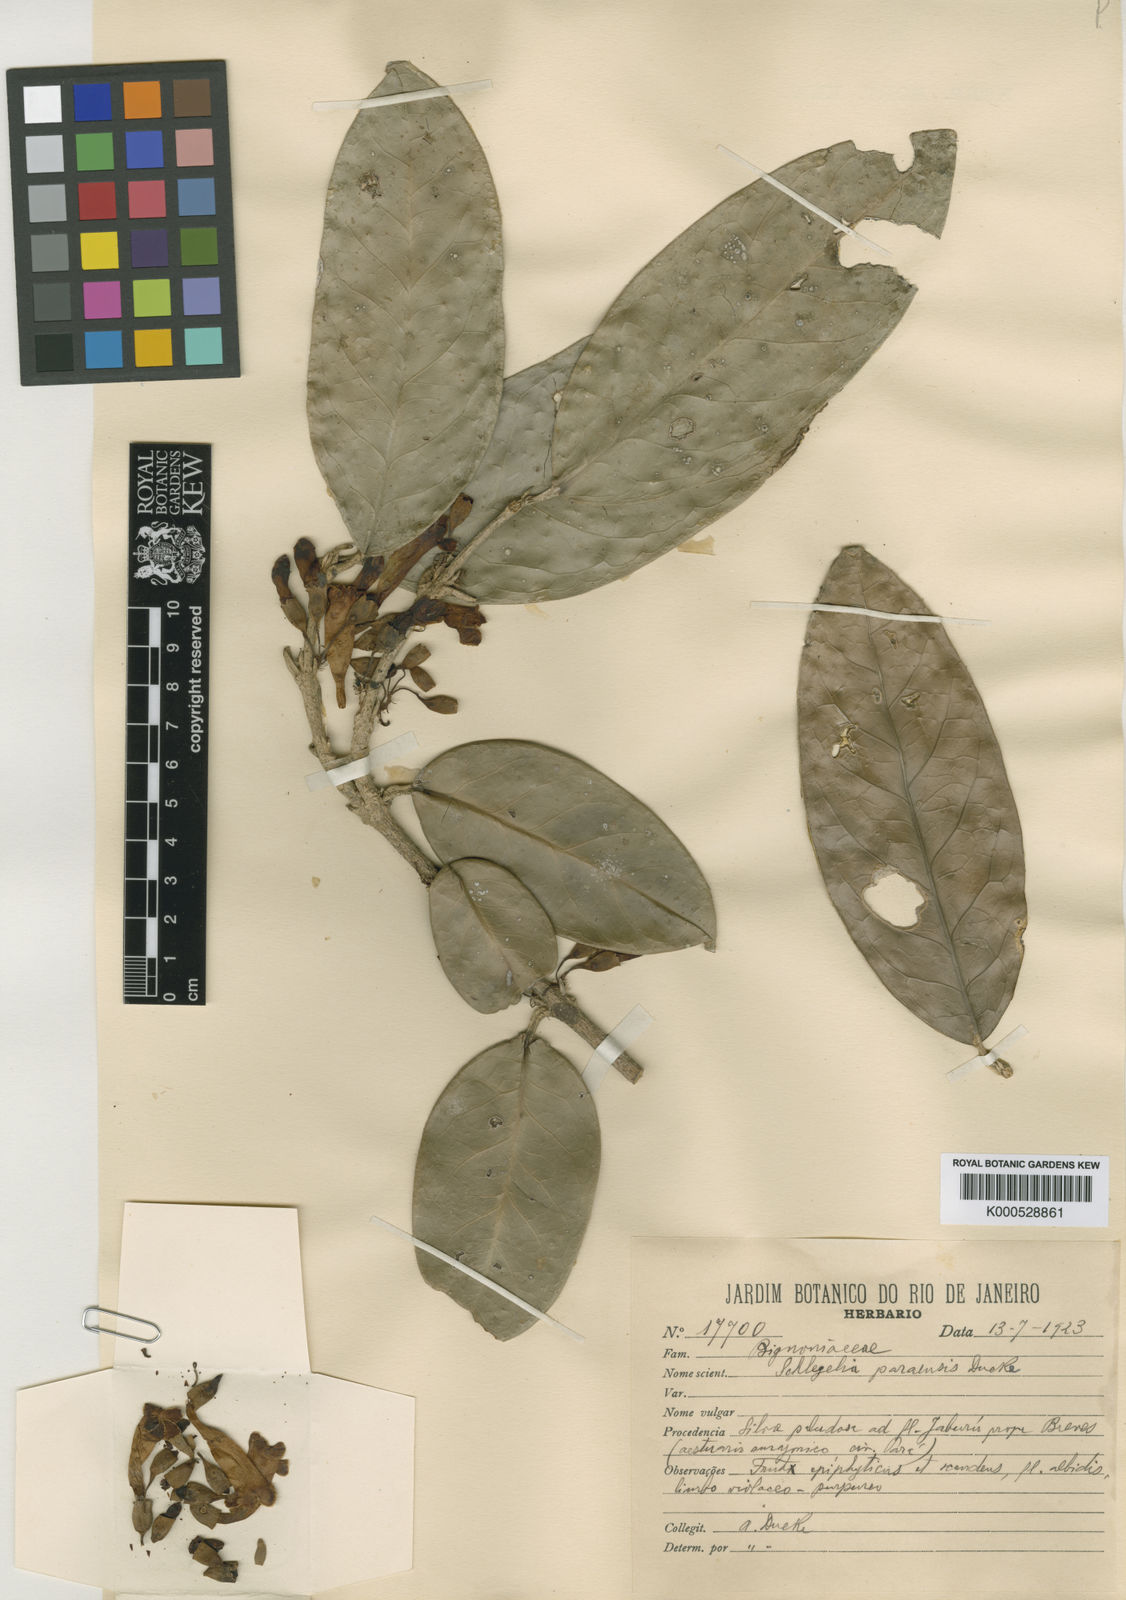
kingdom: Plantae
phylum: Tracheophyta
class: Magnoliopsida
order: Lamiales
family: Schlegeliaceae
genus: Schlegelia
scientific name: Schlegelia paraensis
